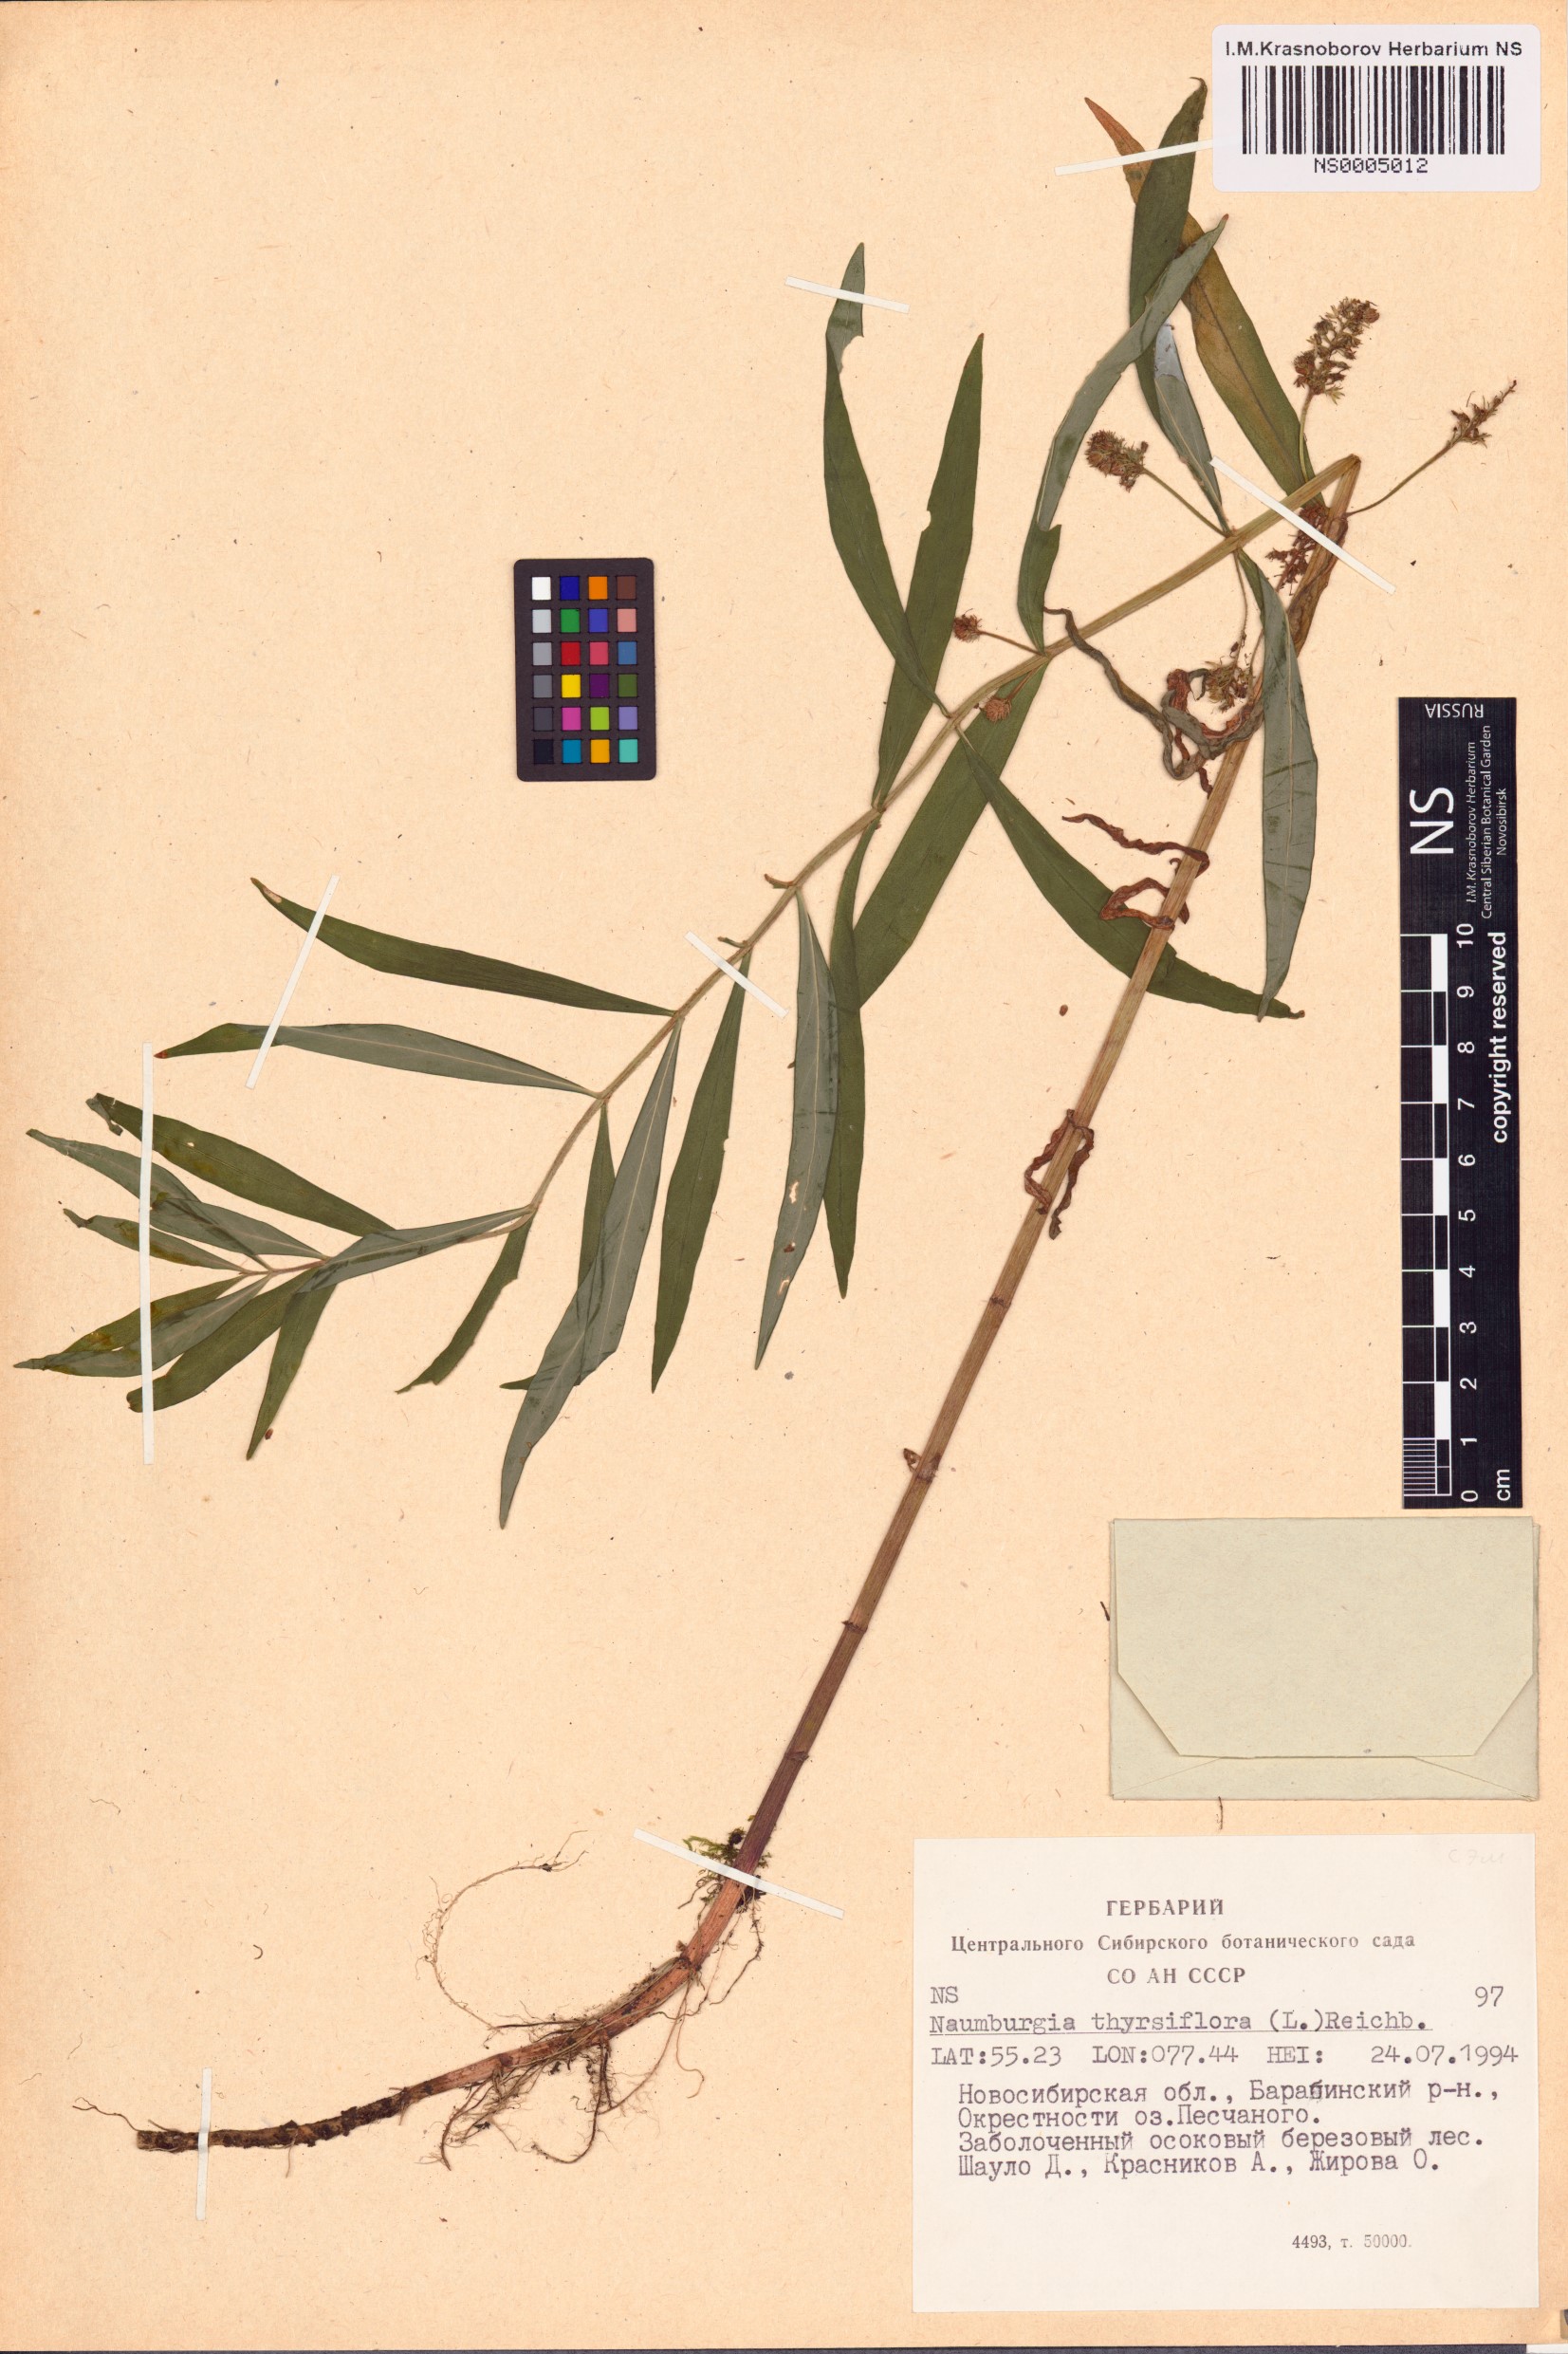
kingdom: Plantae
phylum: Tracheophyta
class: Magnoliopsida
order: Ericales
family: Primulaceae
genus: Lysimachia
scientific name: Lysimachia thyrsiflora
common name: Tufted loosestrife
